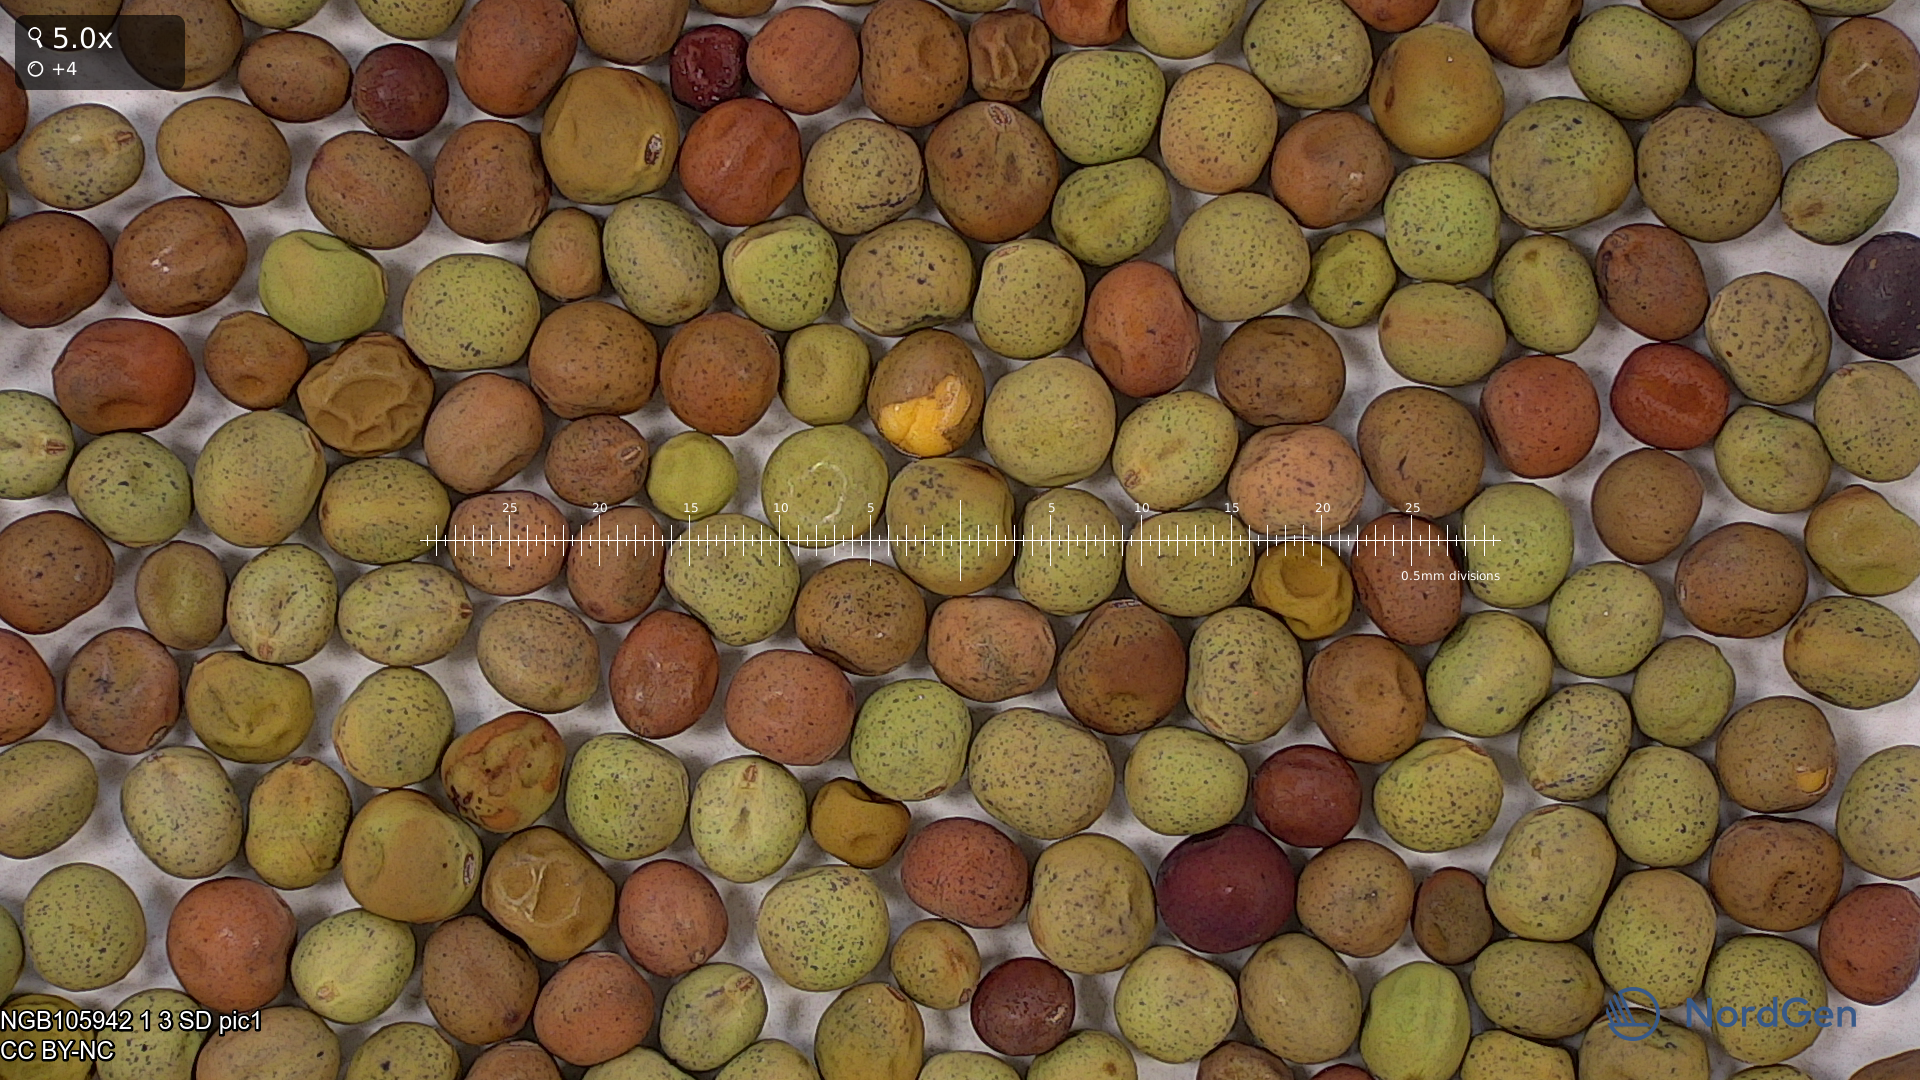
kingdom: Plantae
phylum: Tracheophyta
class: Magnoliopsida
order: Fabales
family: Fabaceae
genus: Lathyrus
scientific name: Lathyrus oleraceus
